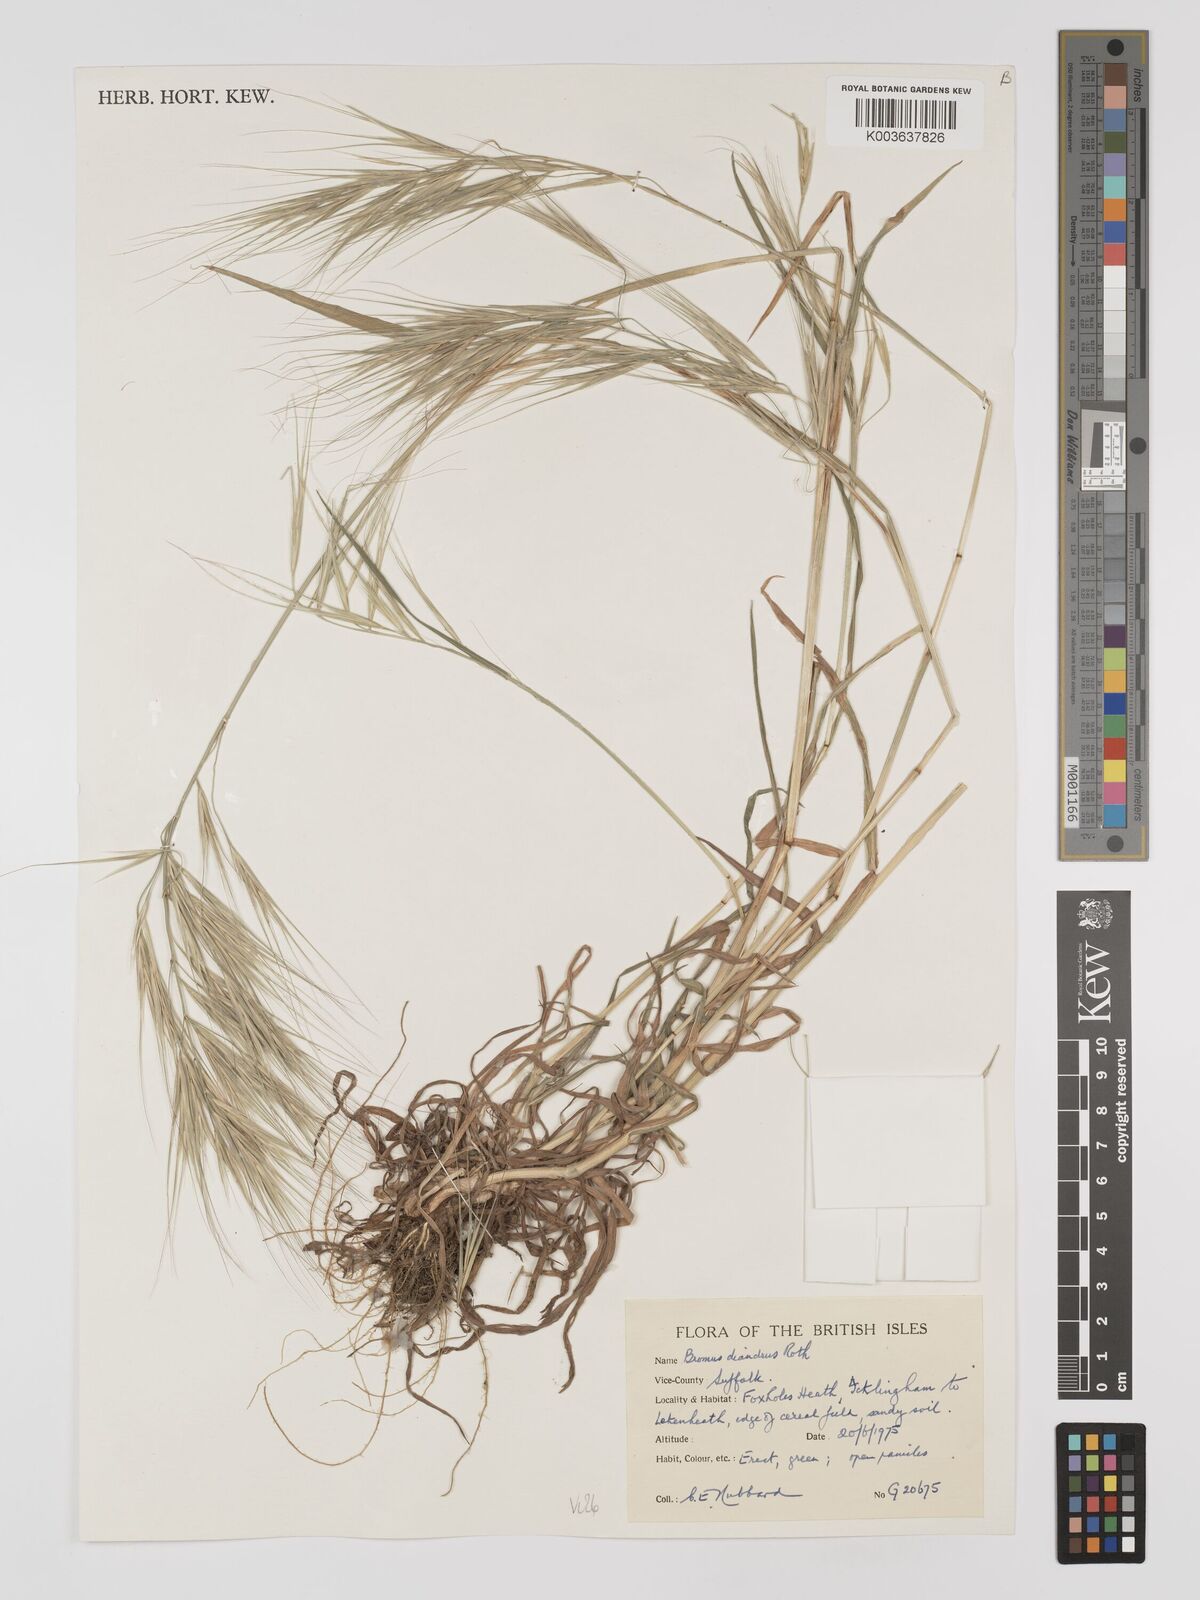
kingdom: Plantae
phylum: Tracheophyta
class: Liliopsida
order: Poales
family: Poaceae
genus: Bromus
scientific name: Bromus
